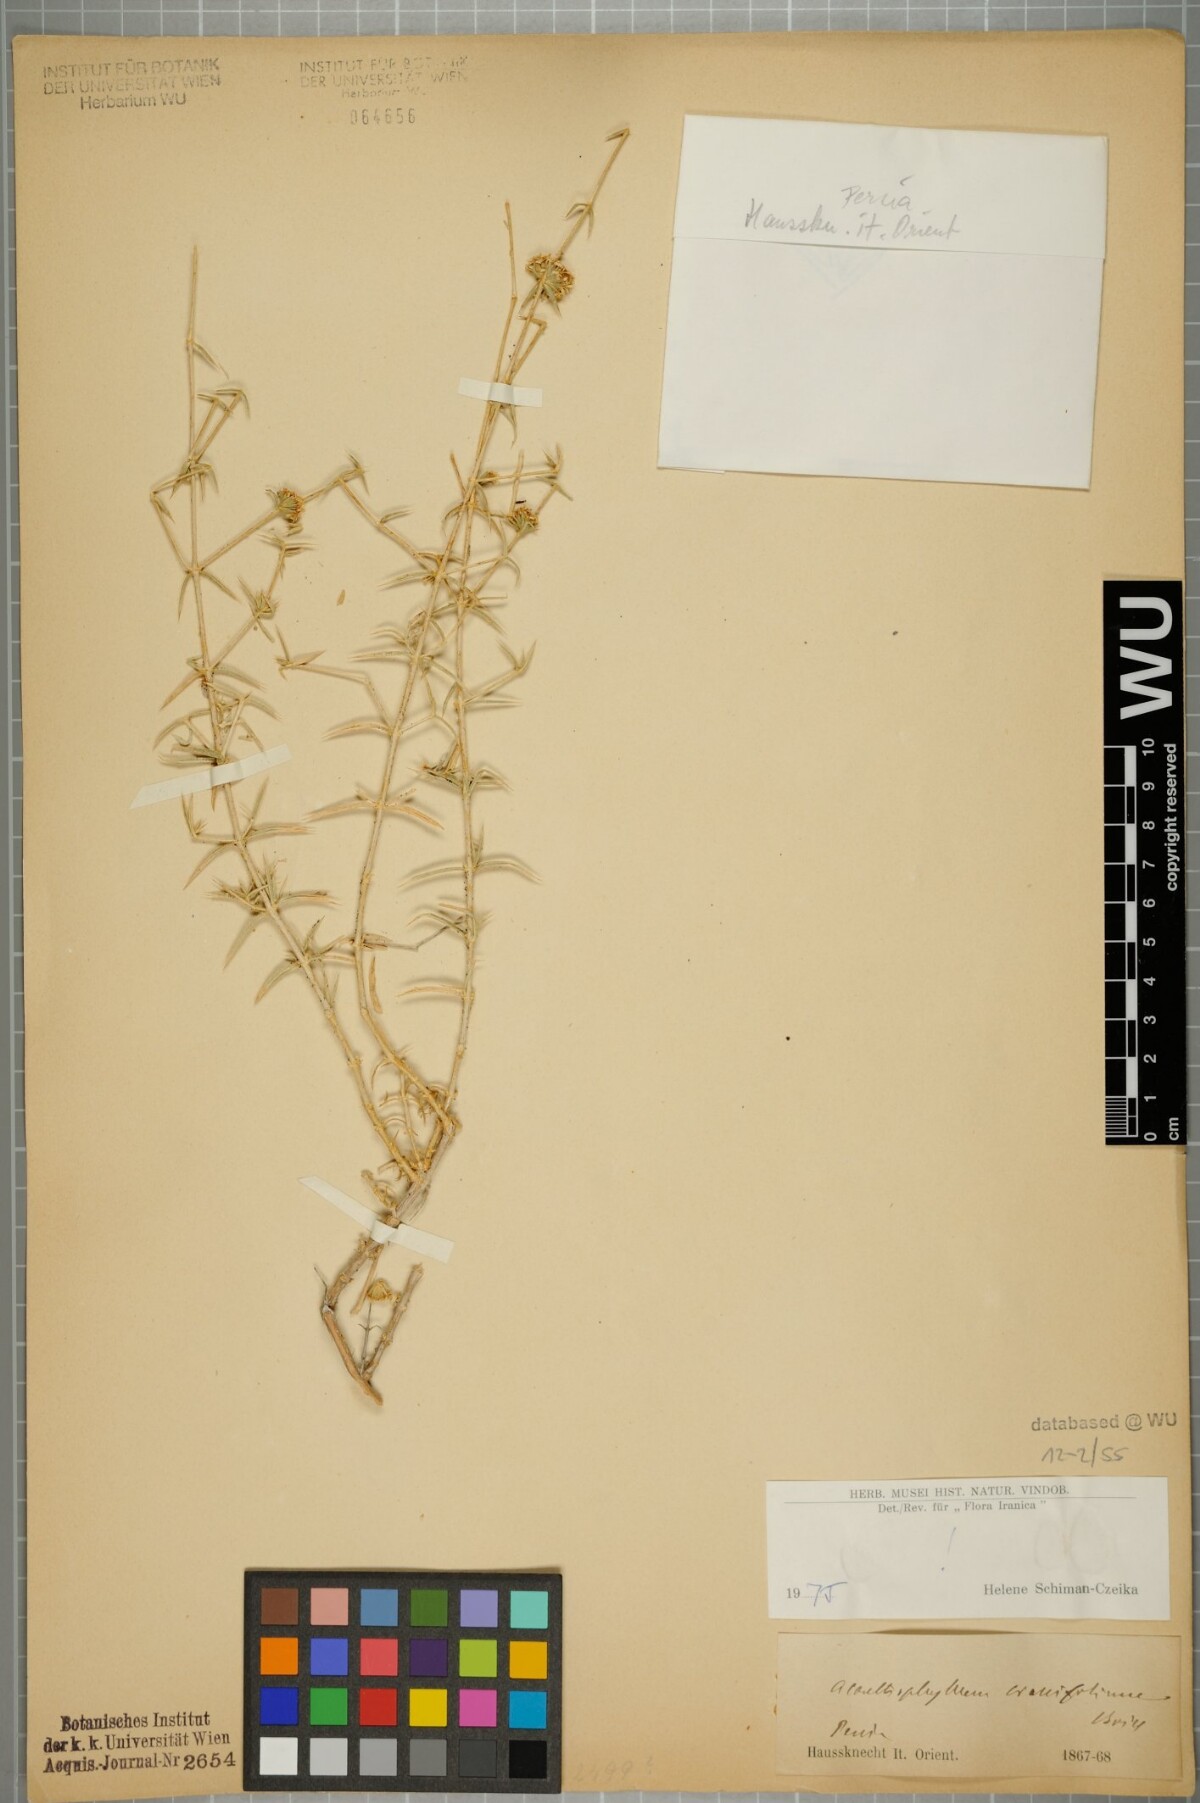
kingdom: Plantae
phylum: Tracheophyta
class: Magnoliopsida
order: Caryophyllales
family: Caryophyllaceae
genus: Acanthophyllum
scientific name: Acanthophyllum crassifolium
